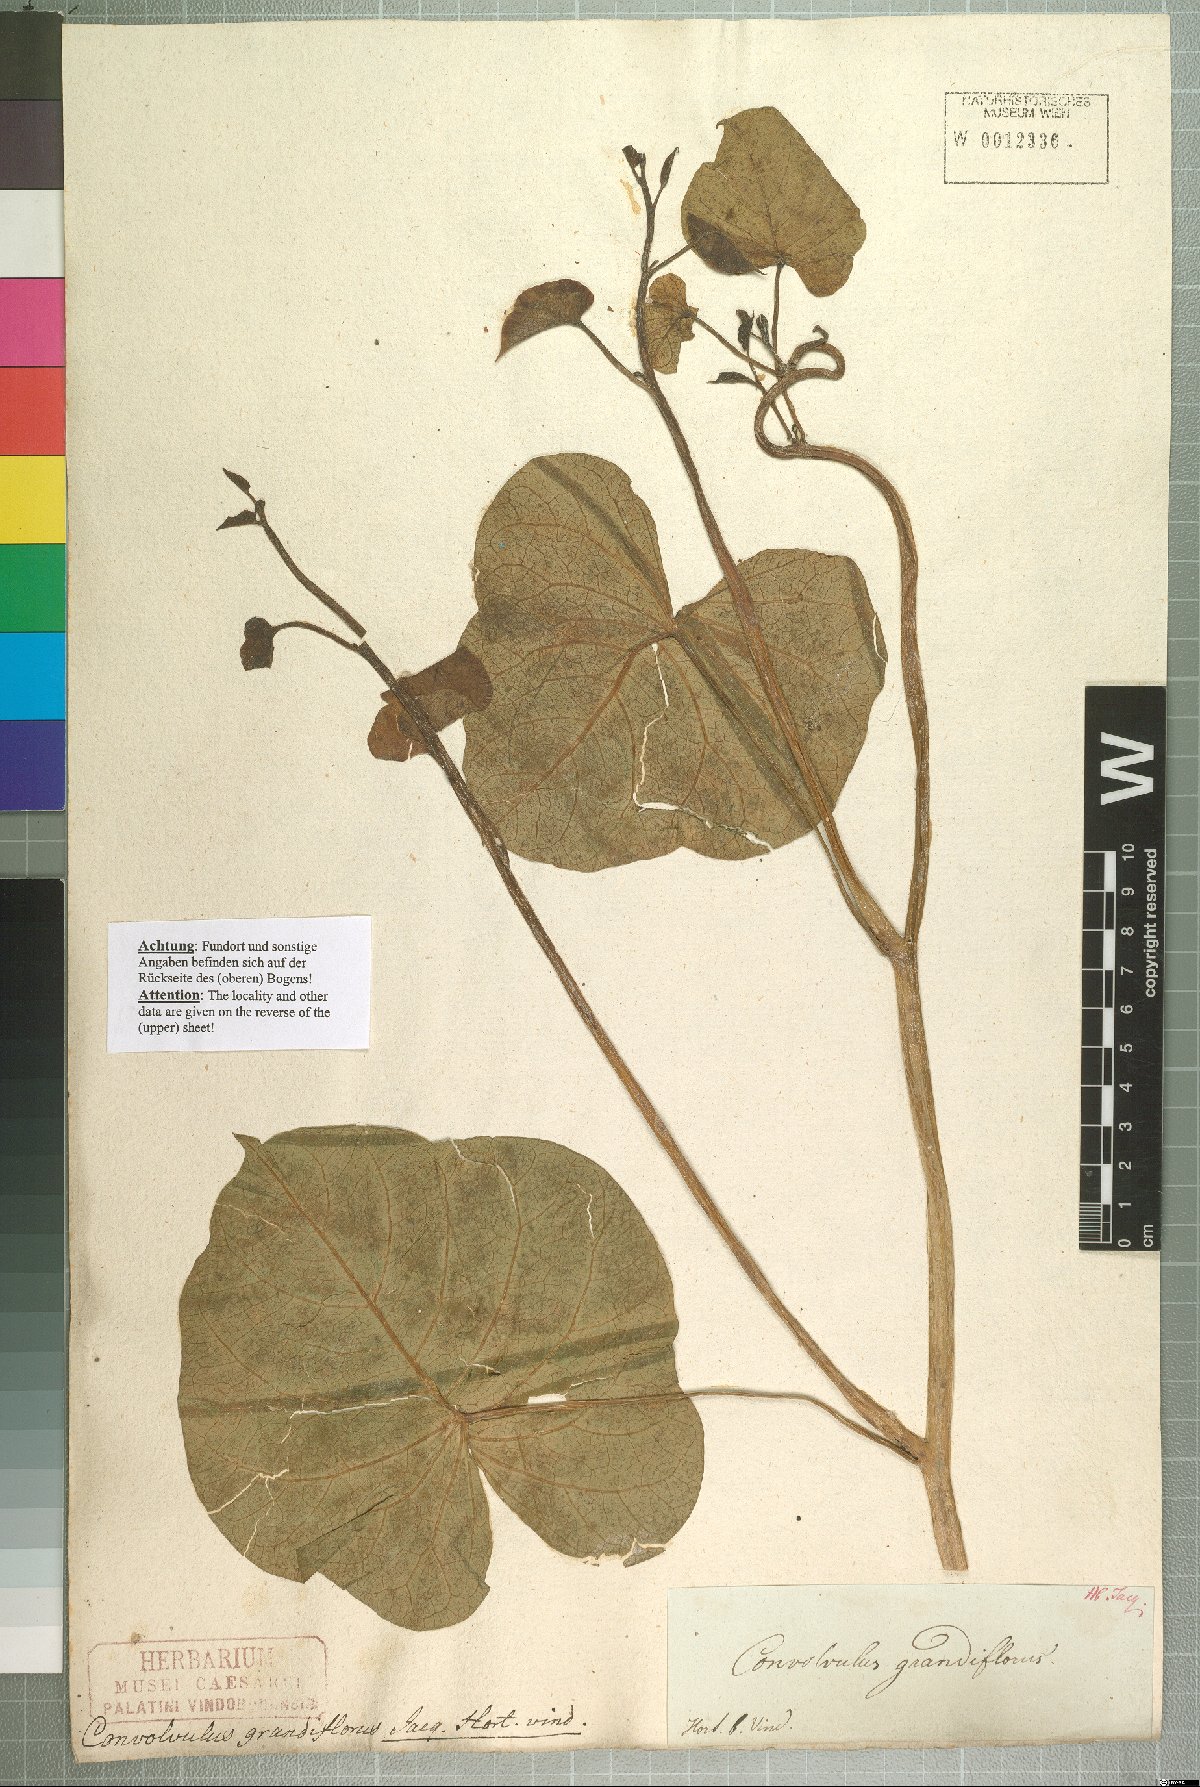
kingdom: Plantae
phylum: Tracheophyta
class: Magnoliopsida
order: Solanales
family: Convolvulaceae
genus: Ipomoea
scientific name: Ipomoea violacea
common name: Beach moonflower
